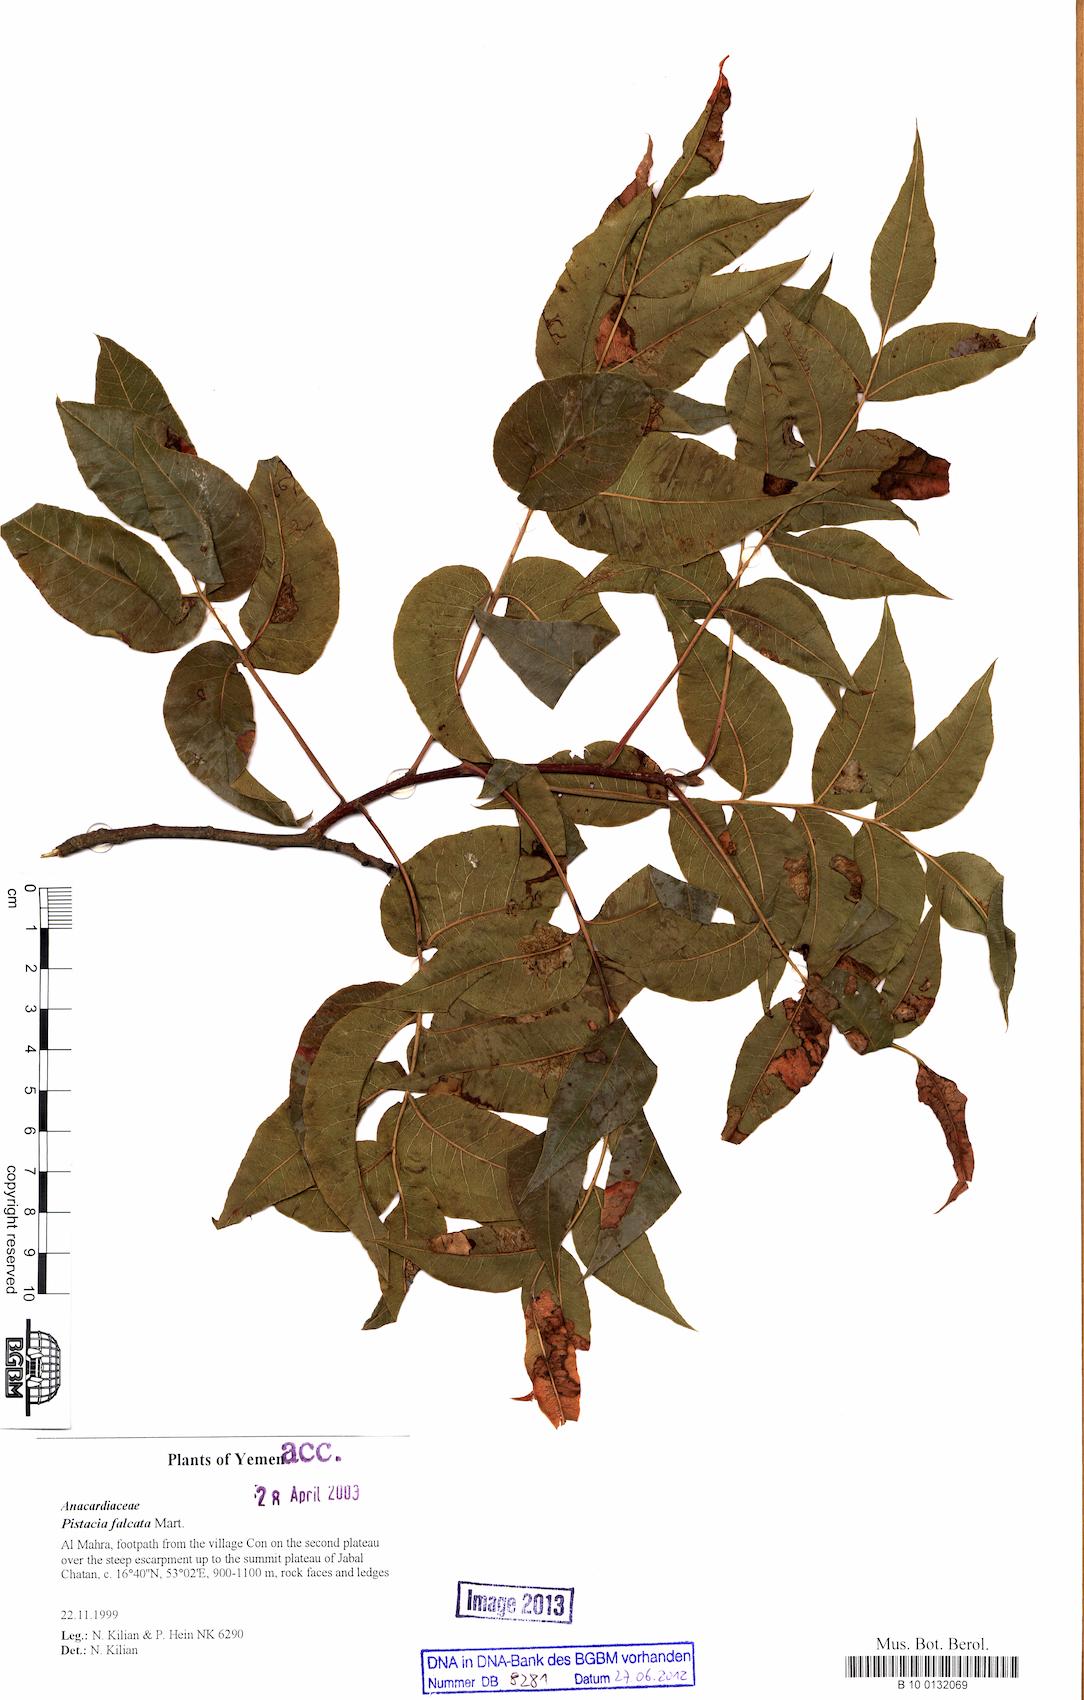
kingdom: Plantae
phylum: Tracheophyta
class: Magnoliopsida
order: Sapindales
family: Anacardiaceae
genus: Pistacia
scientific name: Pistacia falcata
